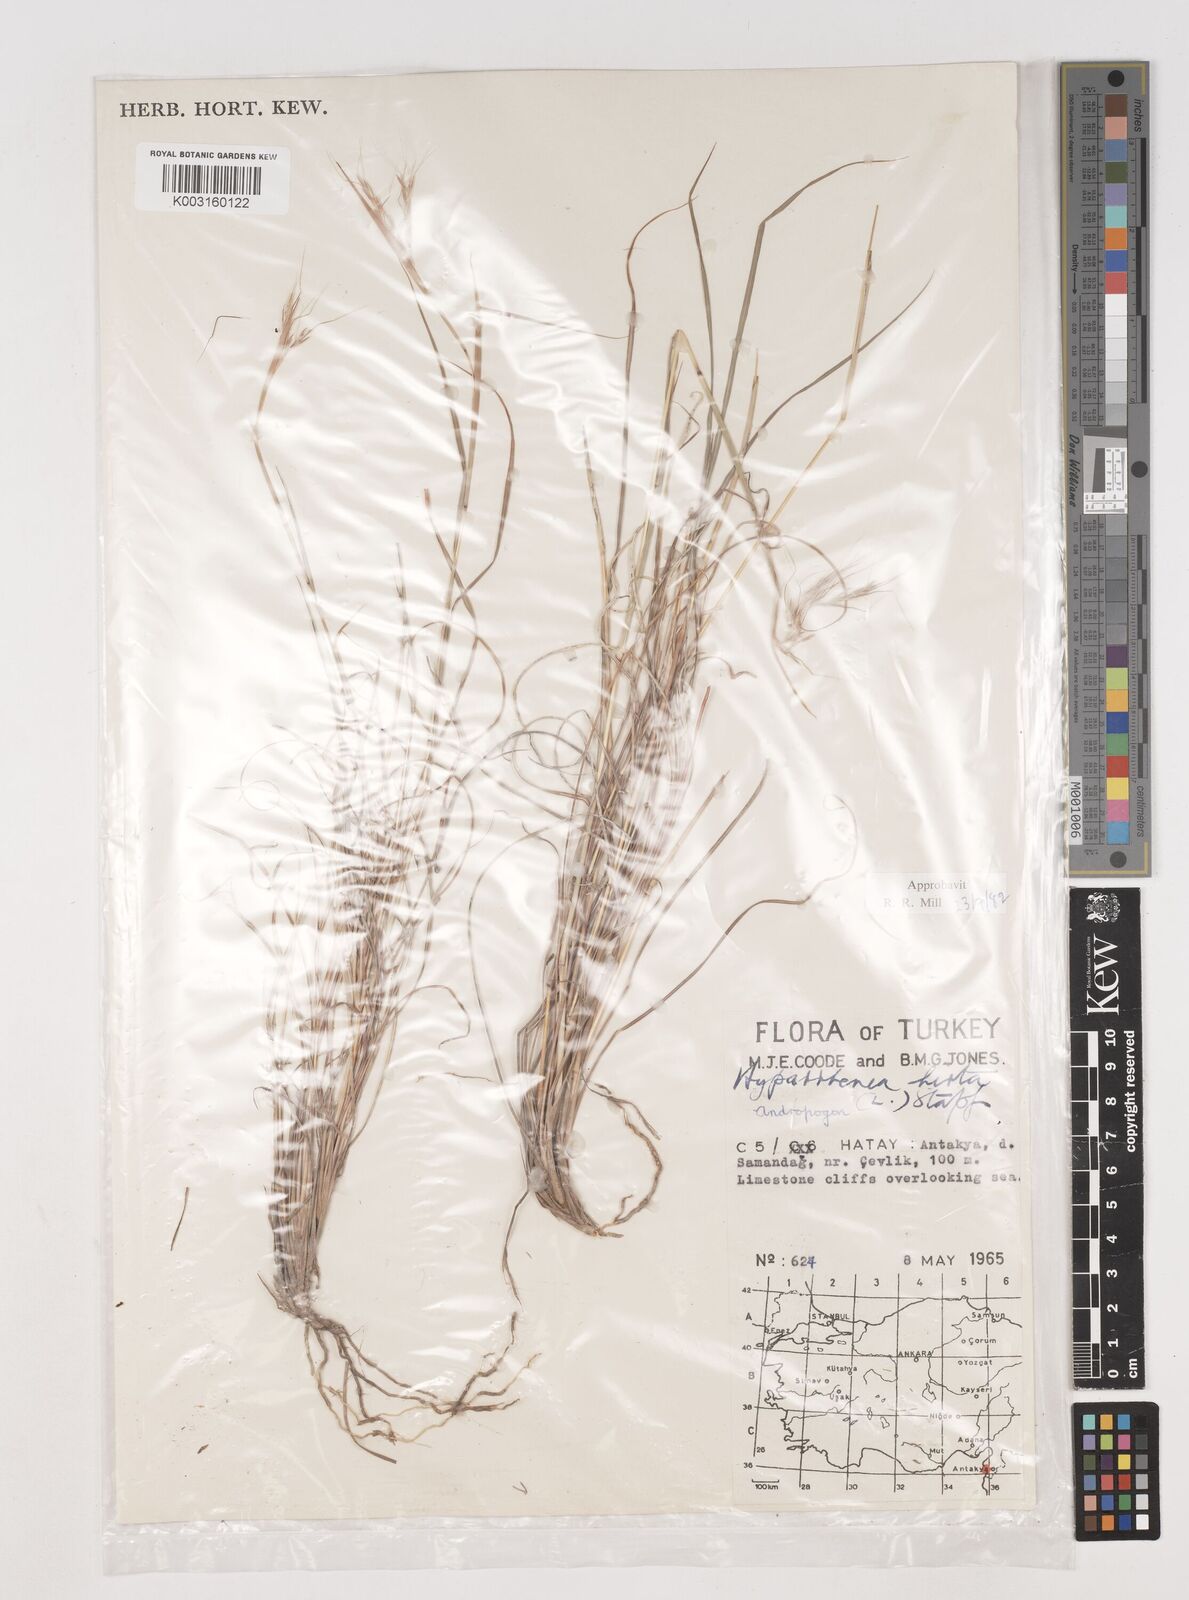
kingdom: Plantae
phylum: Tracheophyta
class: Liliopsida
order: Poales
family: Poaceae
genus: Hyparrhenia
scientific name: Hyparrhenia hirta
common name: Thatching grass
